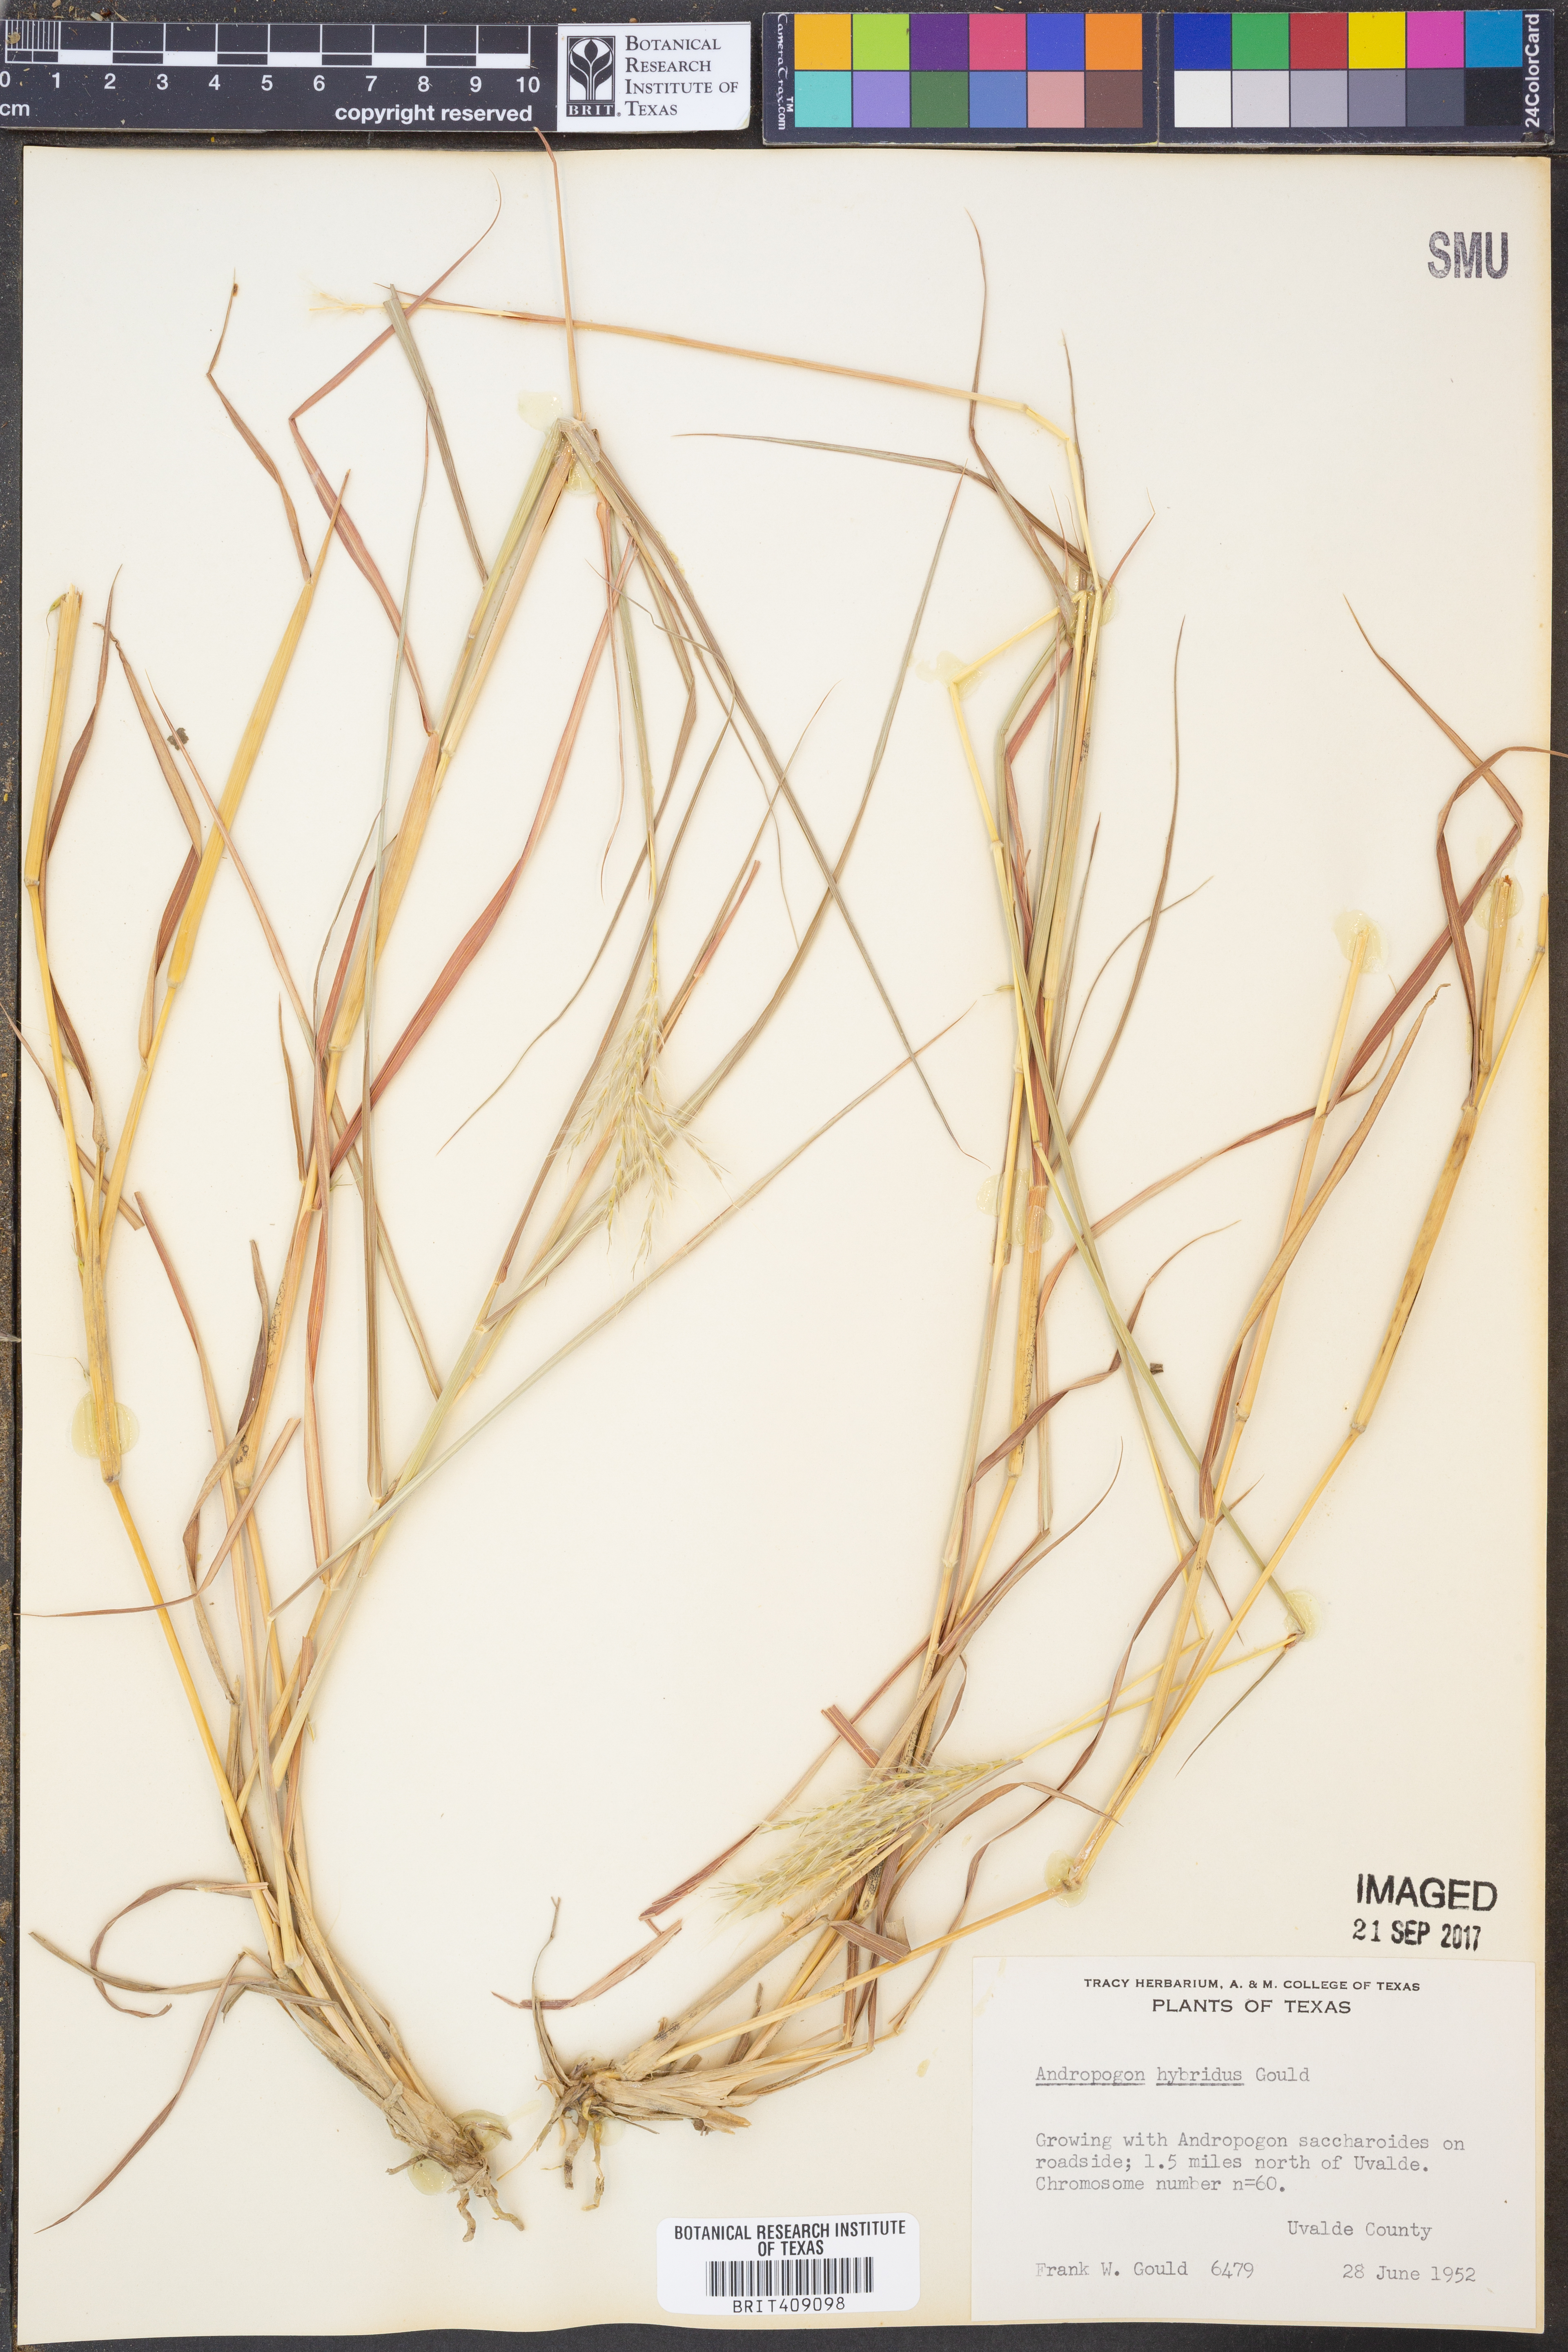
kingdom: Plantae
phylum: Tracheophyta
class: Liliopsida
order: Poales
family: Poaceae
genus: Bothriochloa
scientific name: Bothriochloa hybrida
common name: Hybrid bluestem
